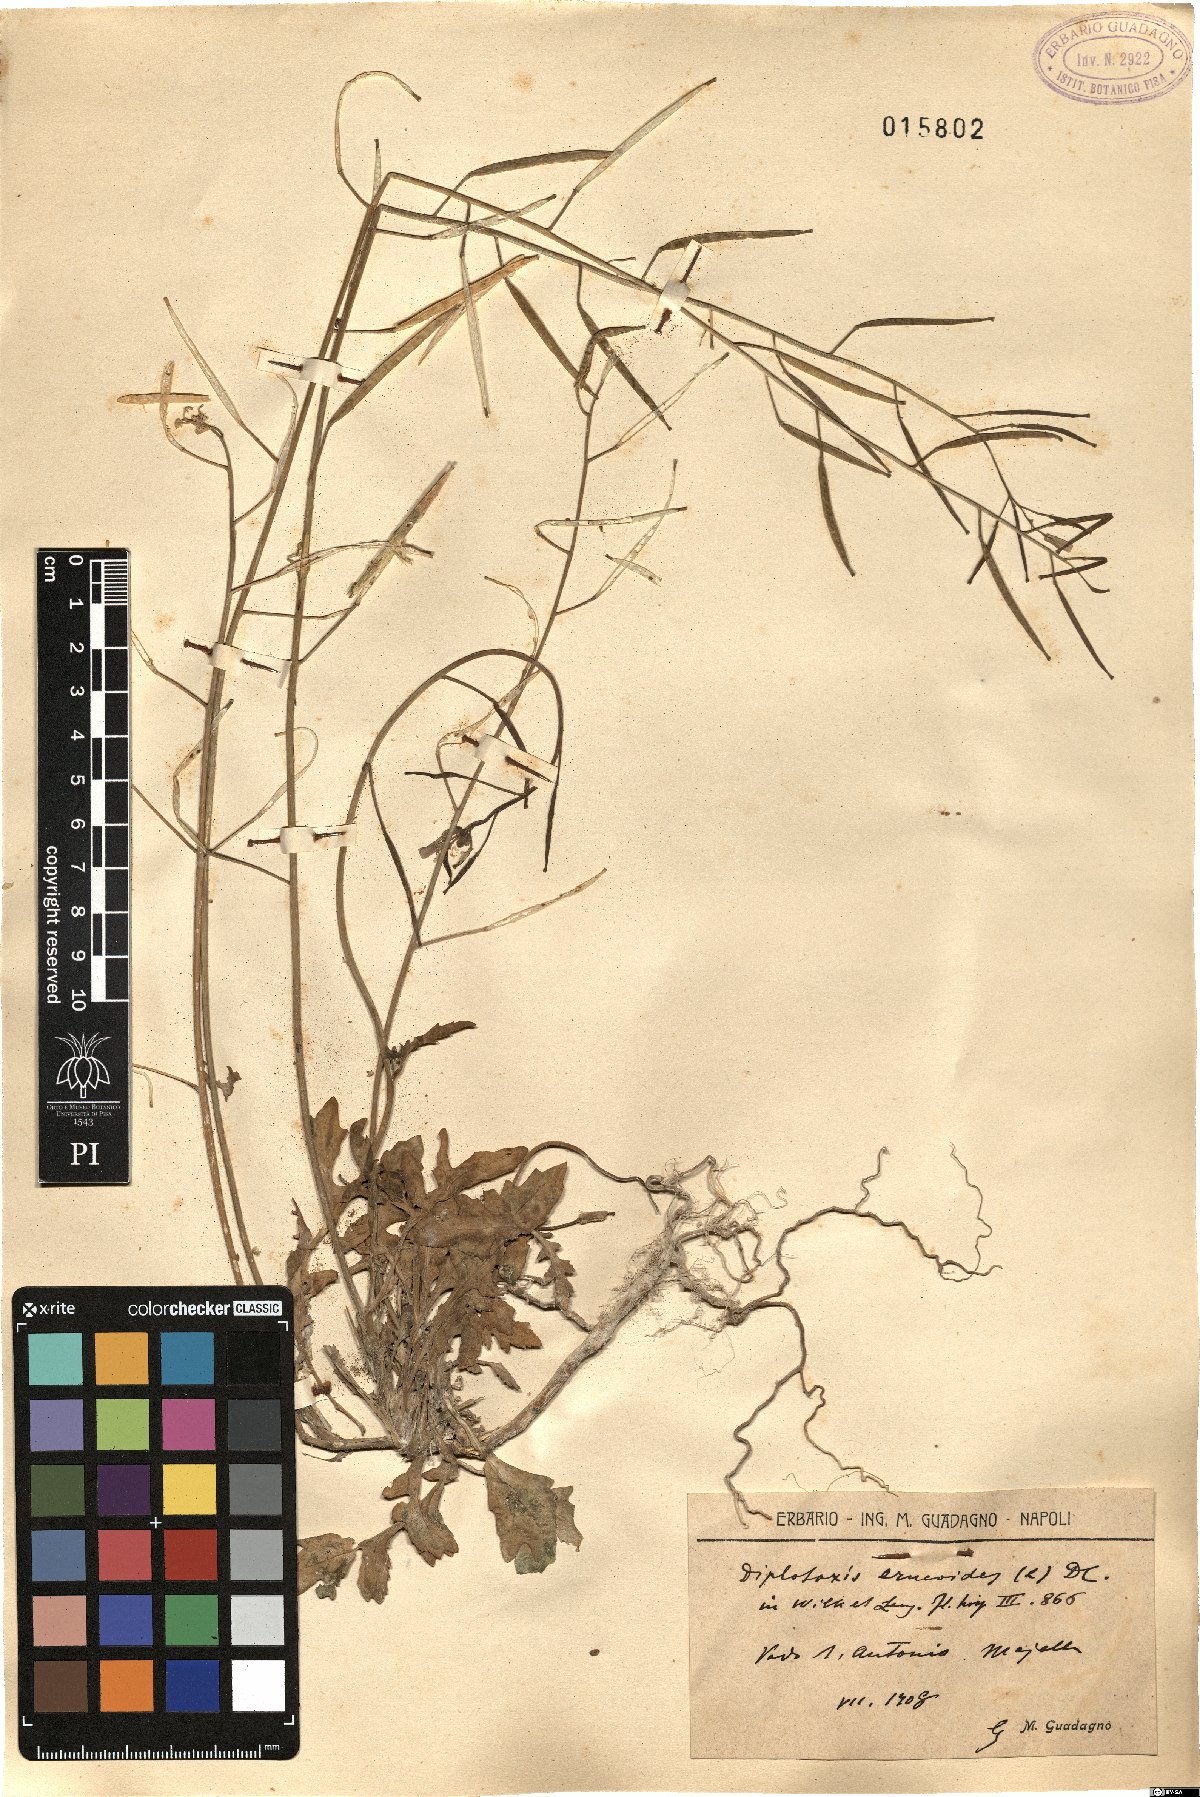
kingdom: Plantae
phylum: Tracheophyta
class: Magnoliopsida
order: Brassicales
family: Brassicaceae
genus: Diplotaxis
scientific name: Diplotaxis erucoides
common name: White rocket
